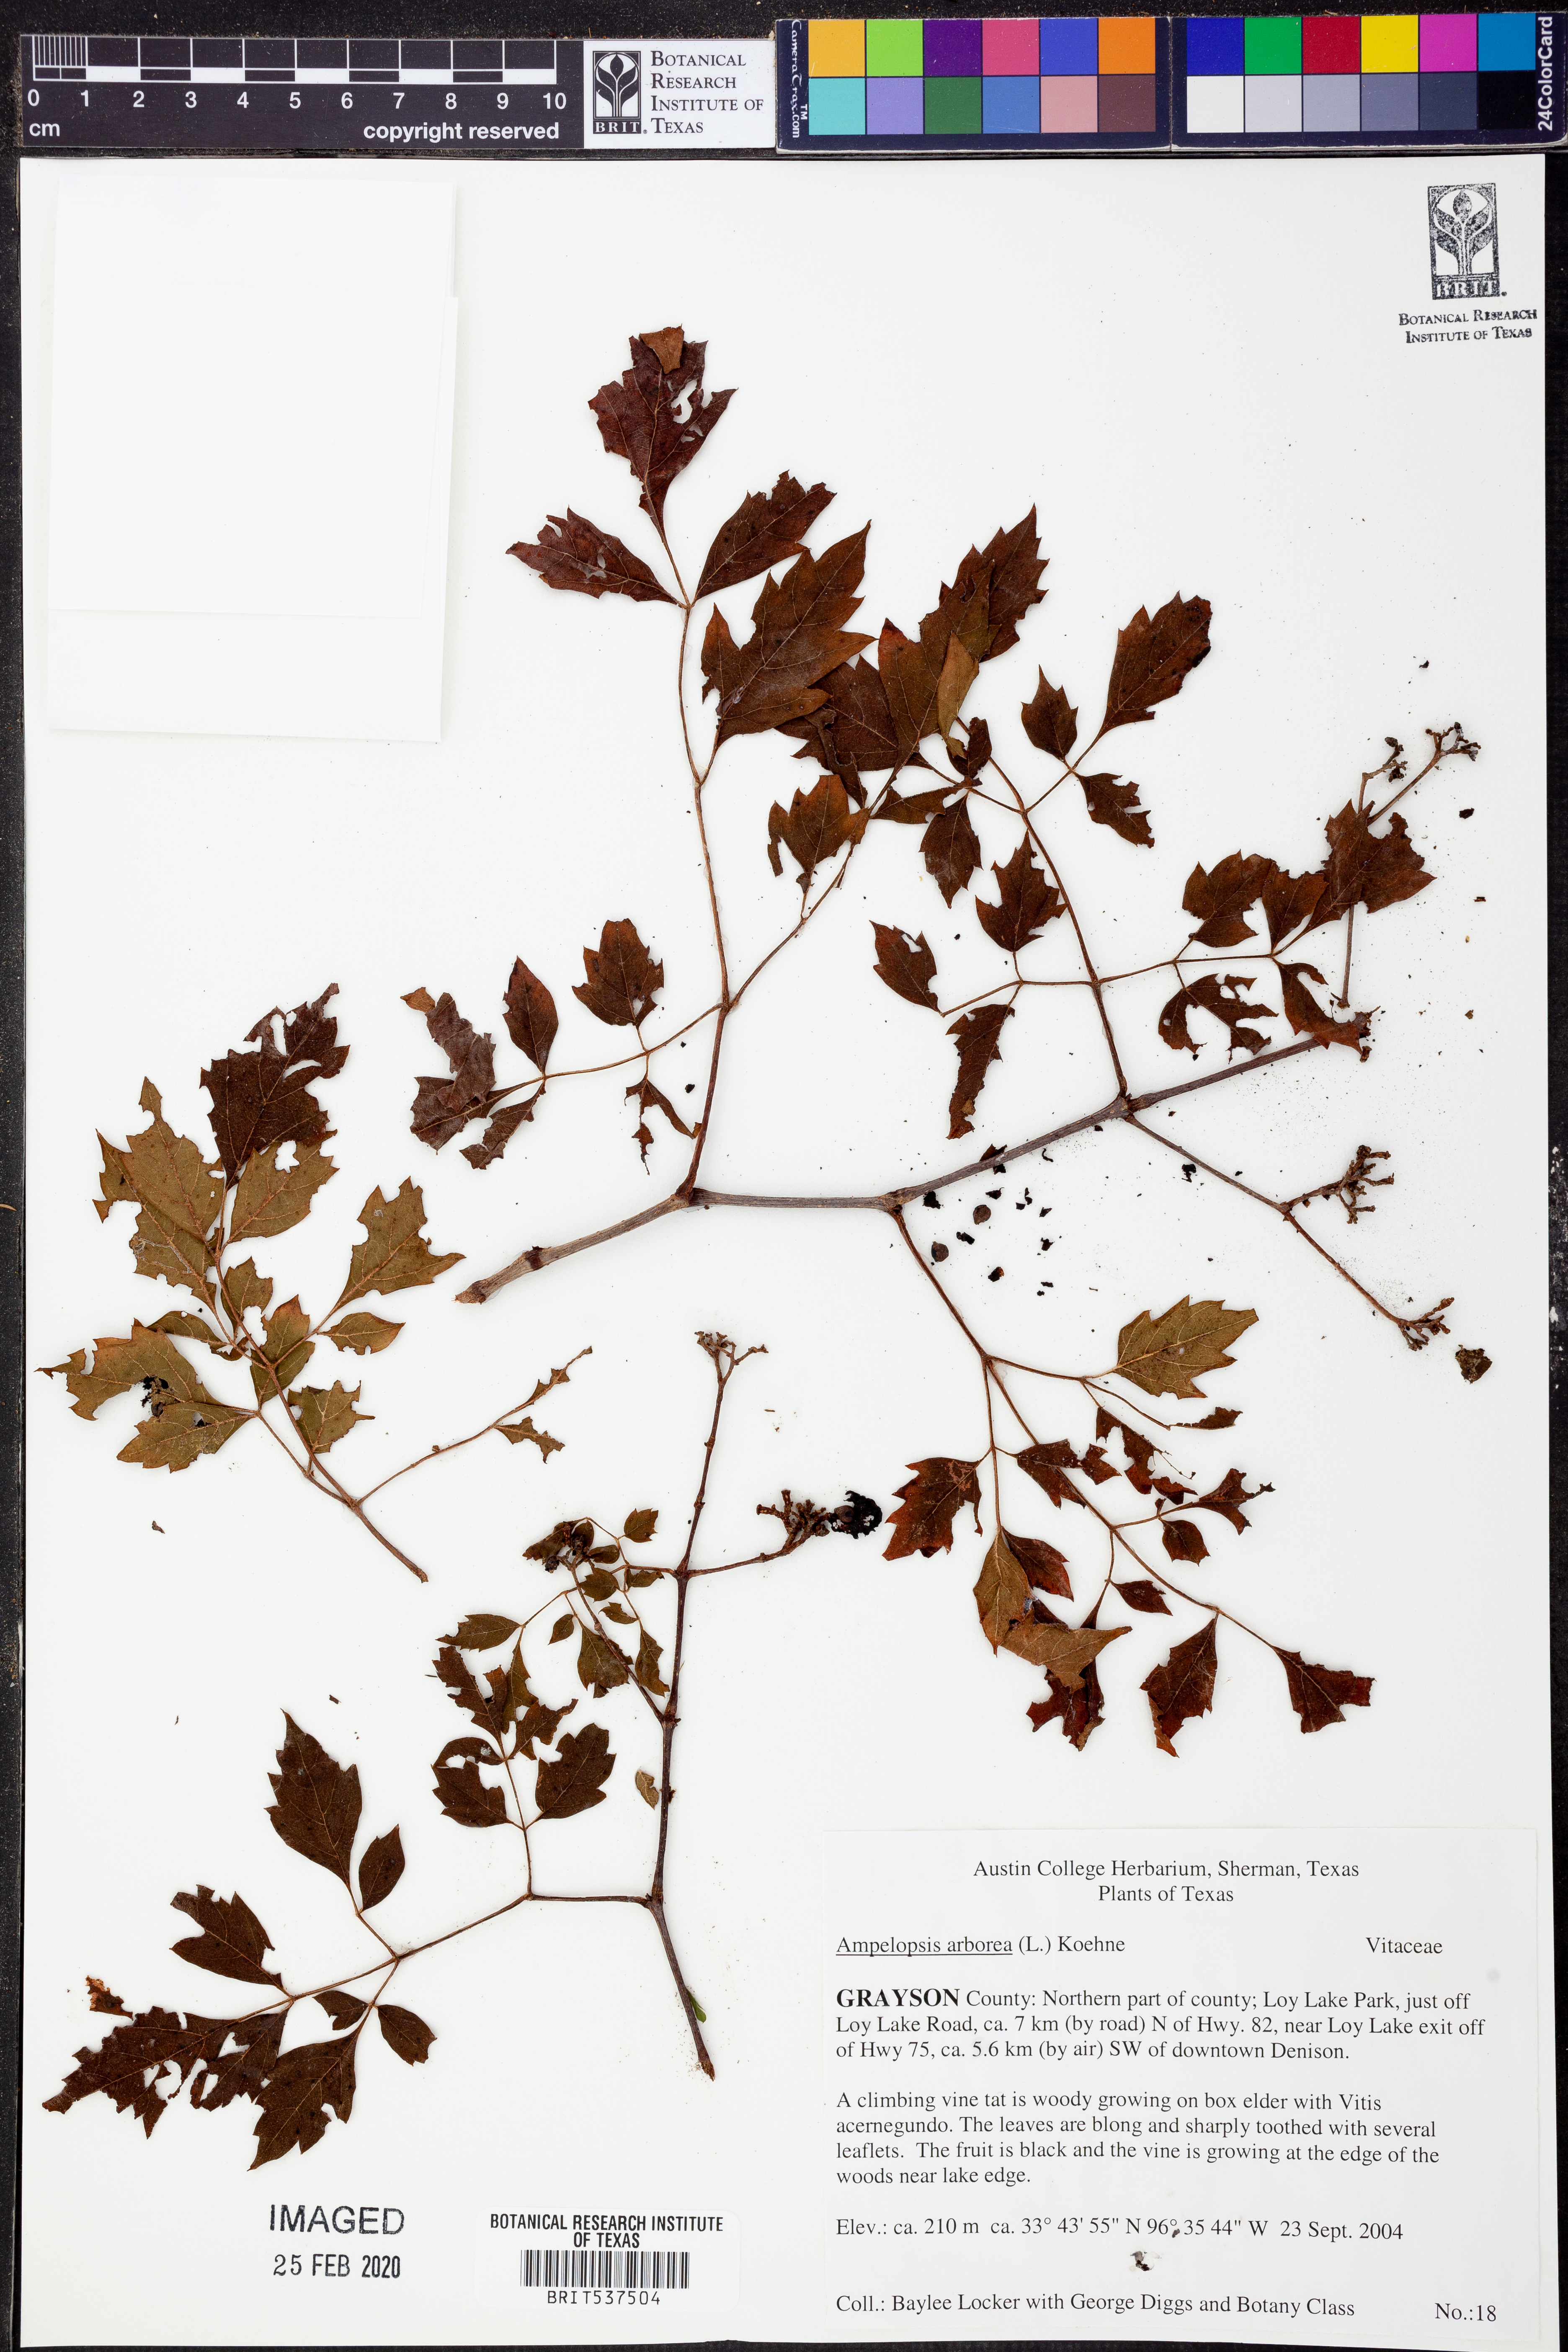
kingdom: Plantae
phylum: Tracheophyta
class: Magnoliopsida
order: Vitales
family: Vitaceae
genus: Nekemias
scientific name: Nekemias arborea
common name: Peppervine
